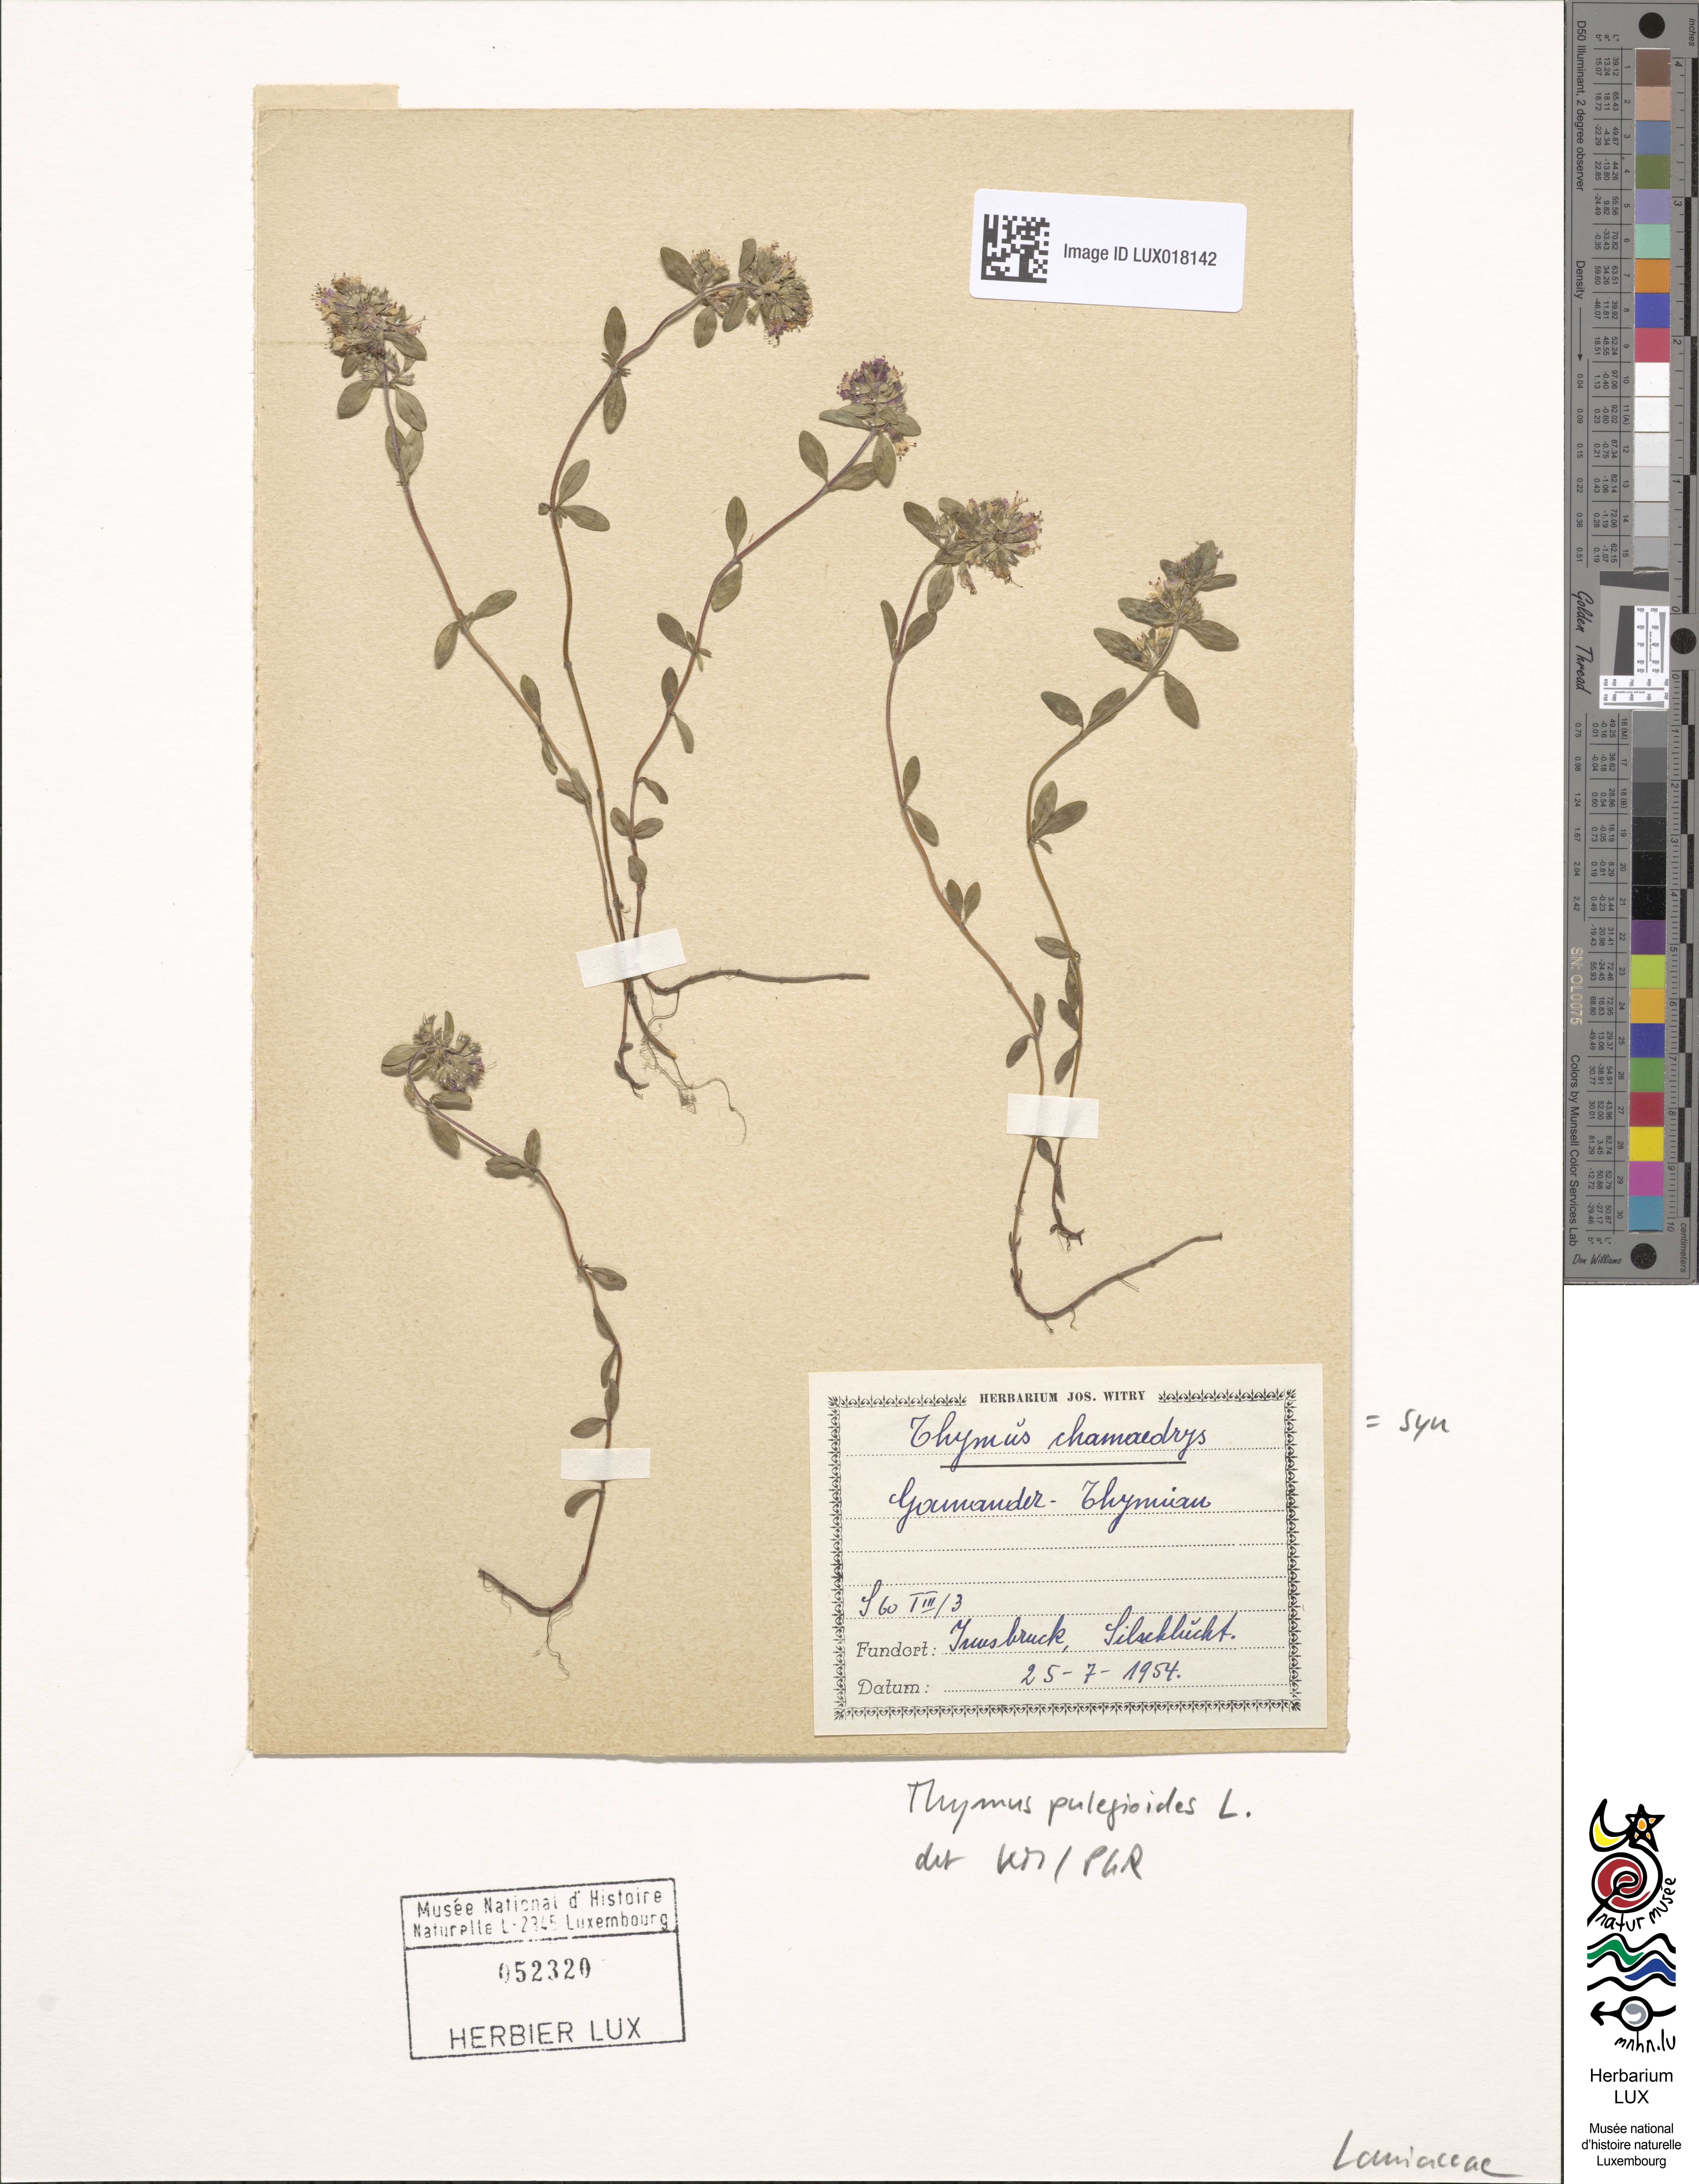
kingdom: Plantae
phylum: Tracheophyta
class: Magnoliopsida
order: Lamiales
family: Lamiaceae
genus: Thymus
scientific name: Thymus pulegioides
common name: Large thyme
